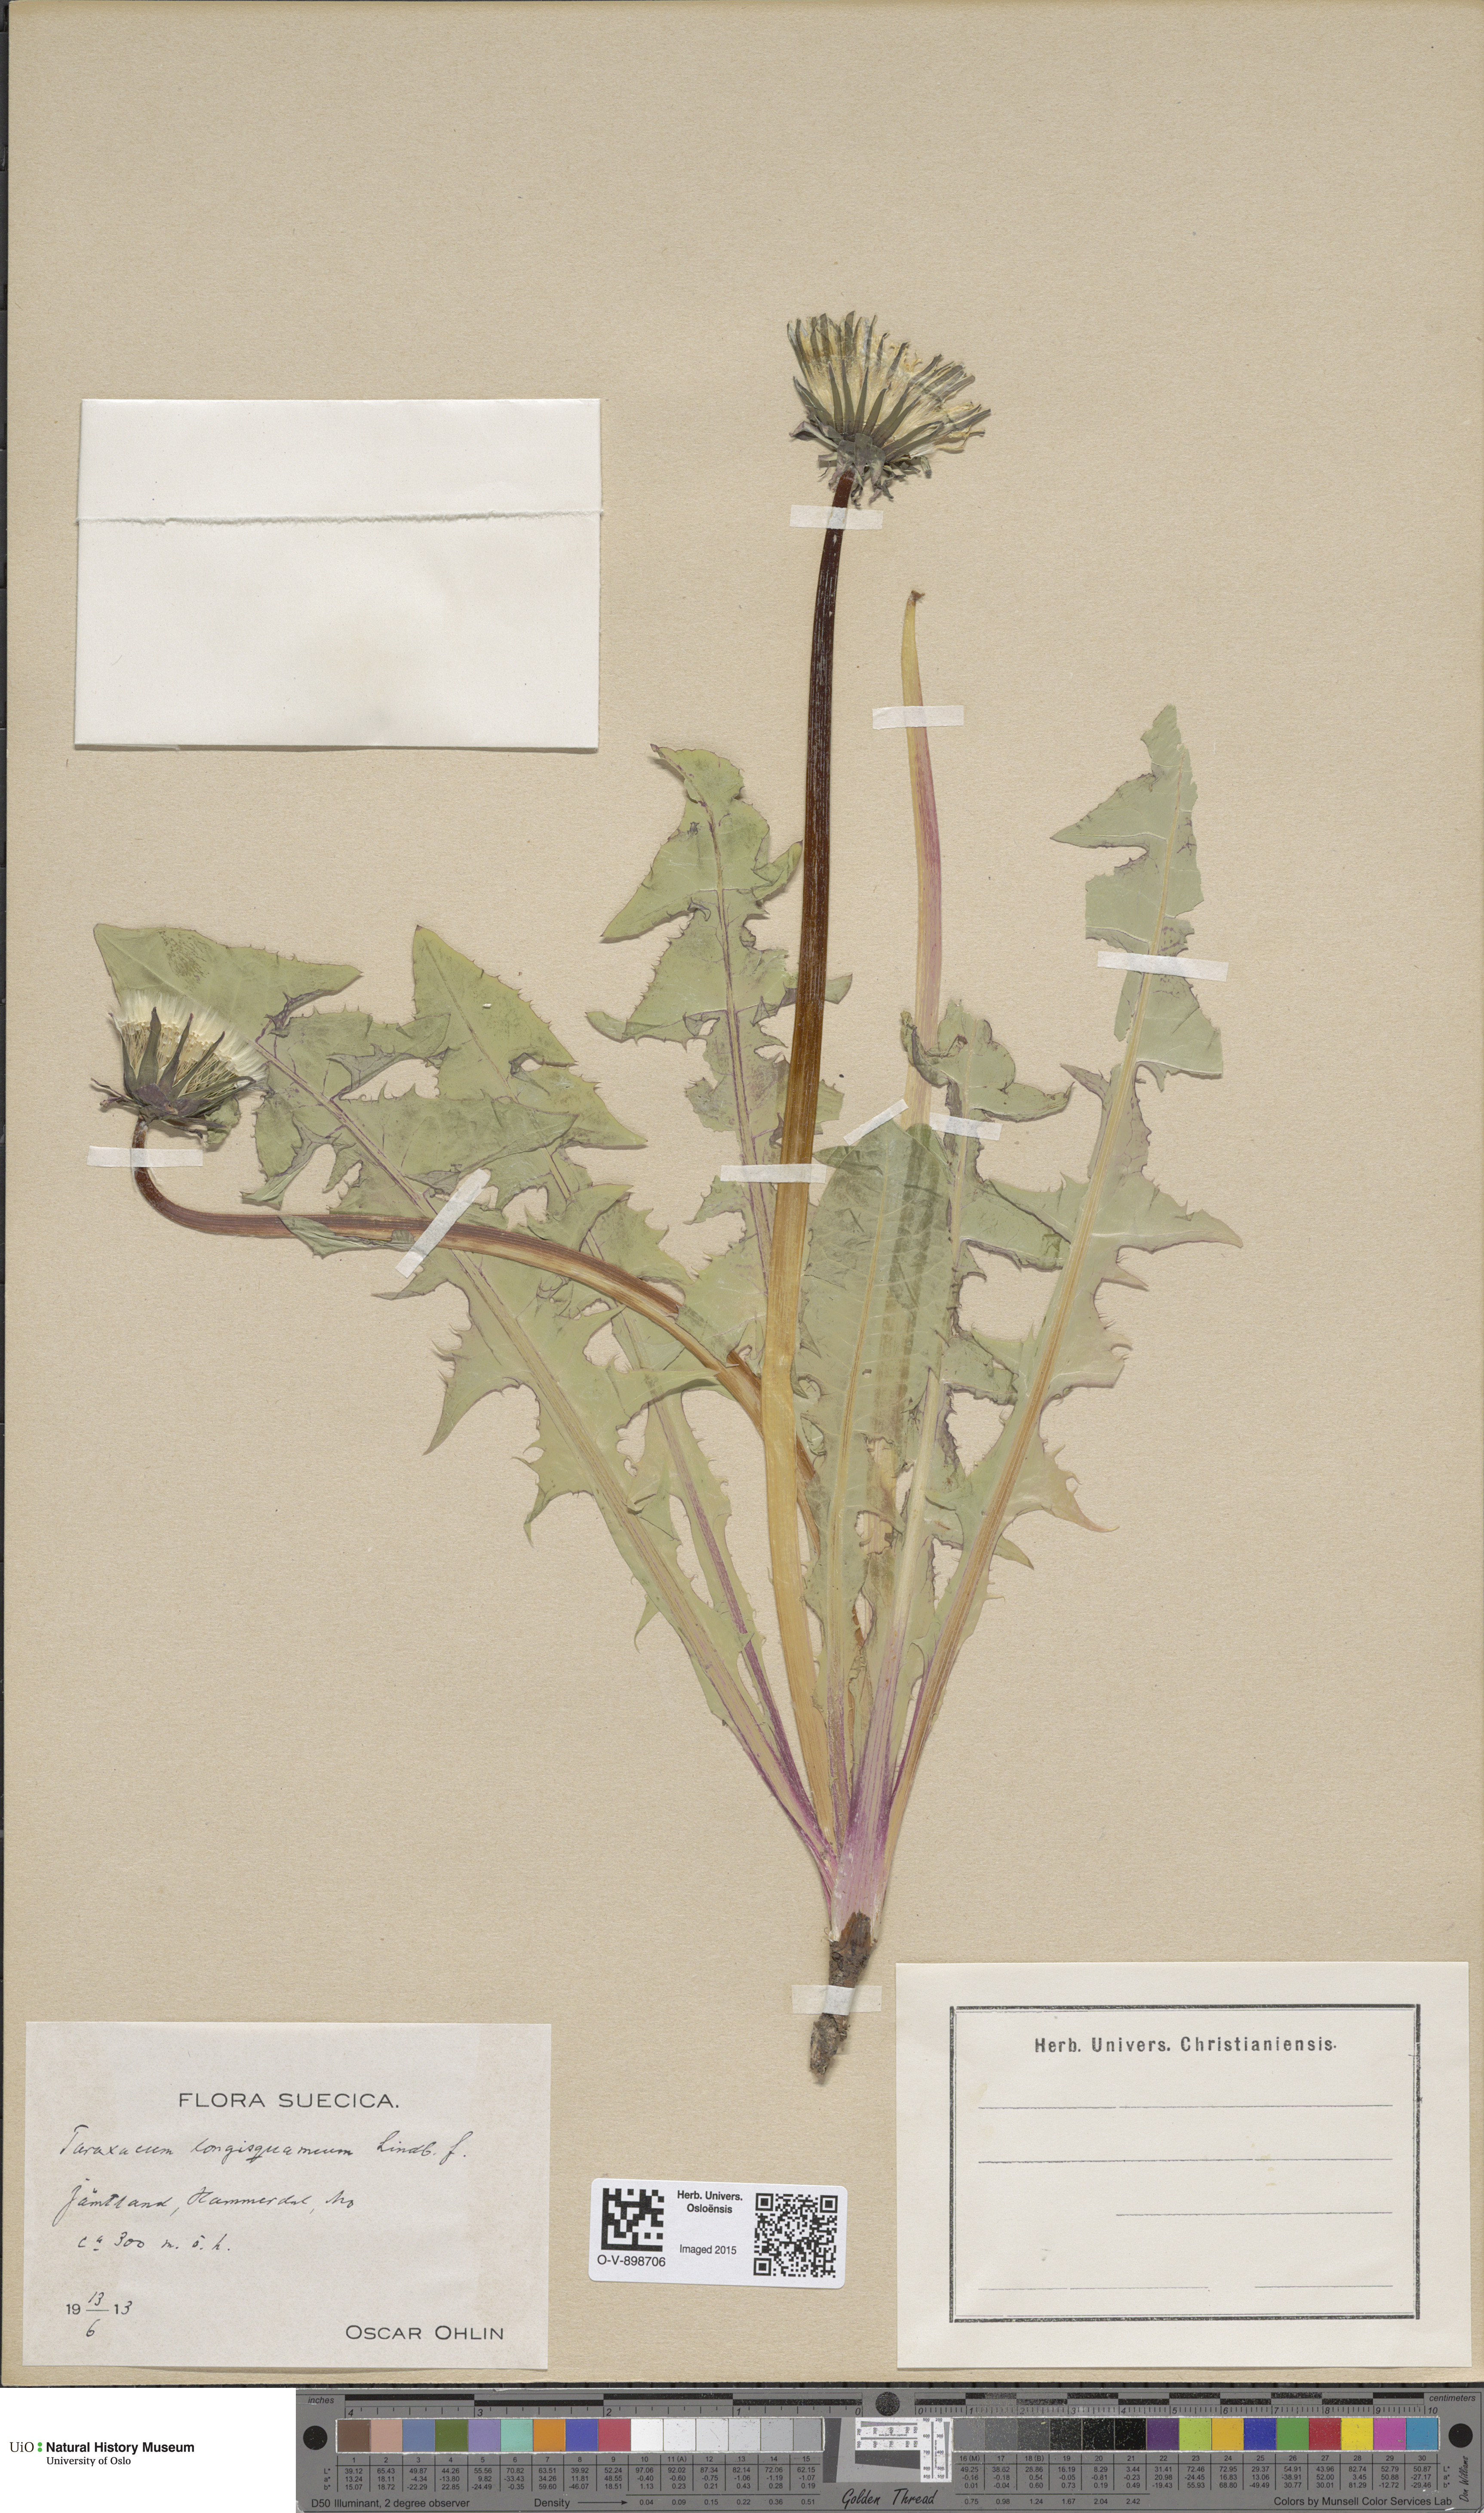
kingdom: Plantae
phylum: Tracheophyta
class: Magnoliopsida
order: Asterales
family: Asteraceae
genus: Taraxacum
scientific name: Taraxacum longisquameum
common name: Elongate-bracted dandelion
